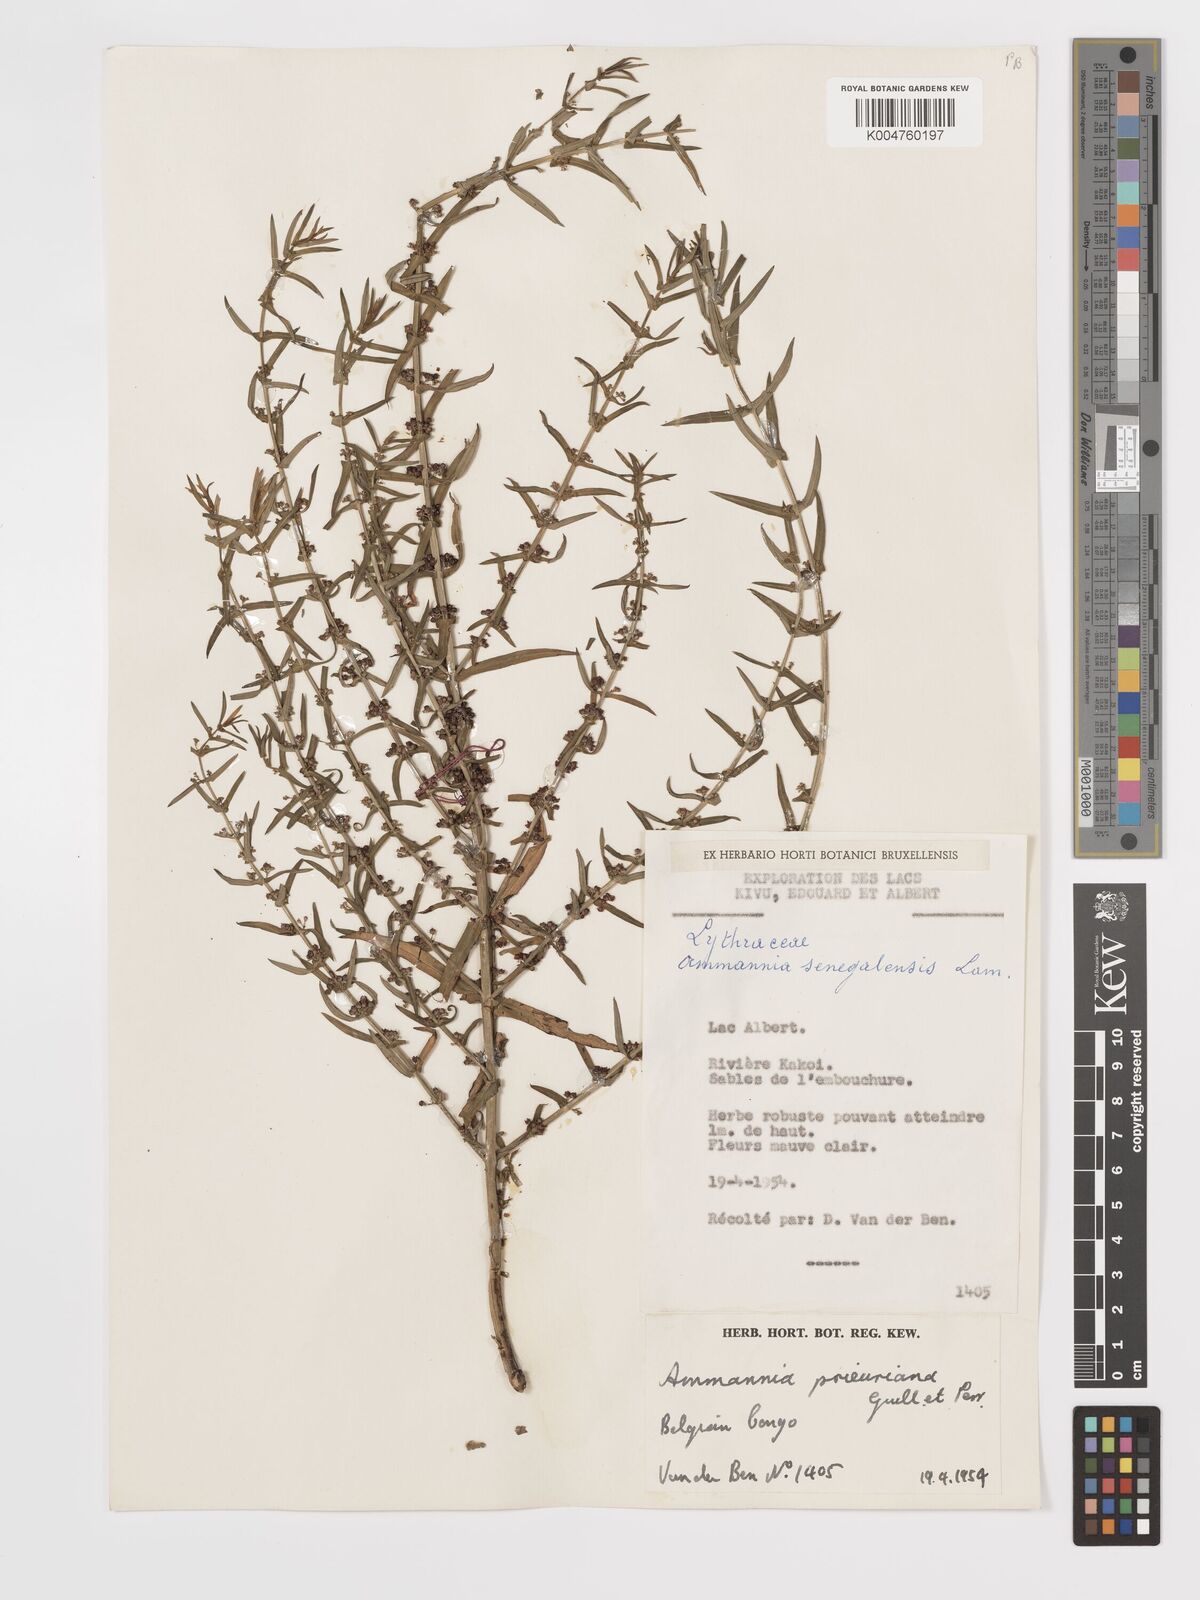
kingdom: Plantae
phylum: Tracheophyta
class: Magnoliopsida
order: Myrtales
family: Lythraceae
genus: Ammannia
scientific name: Ammannia prieuriana
